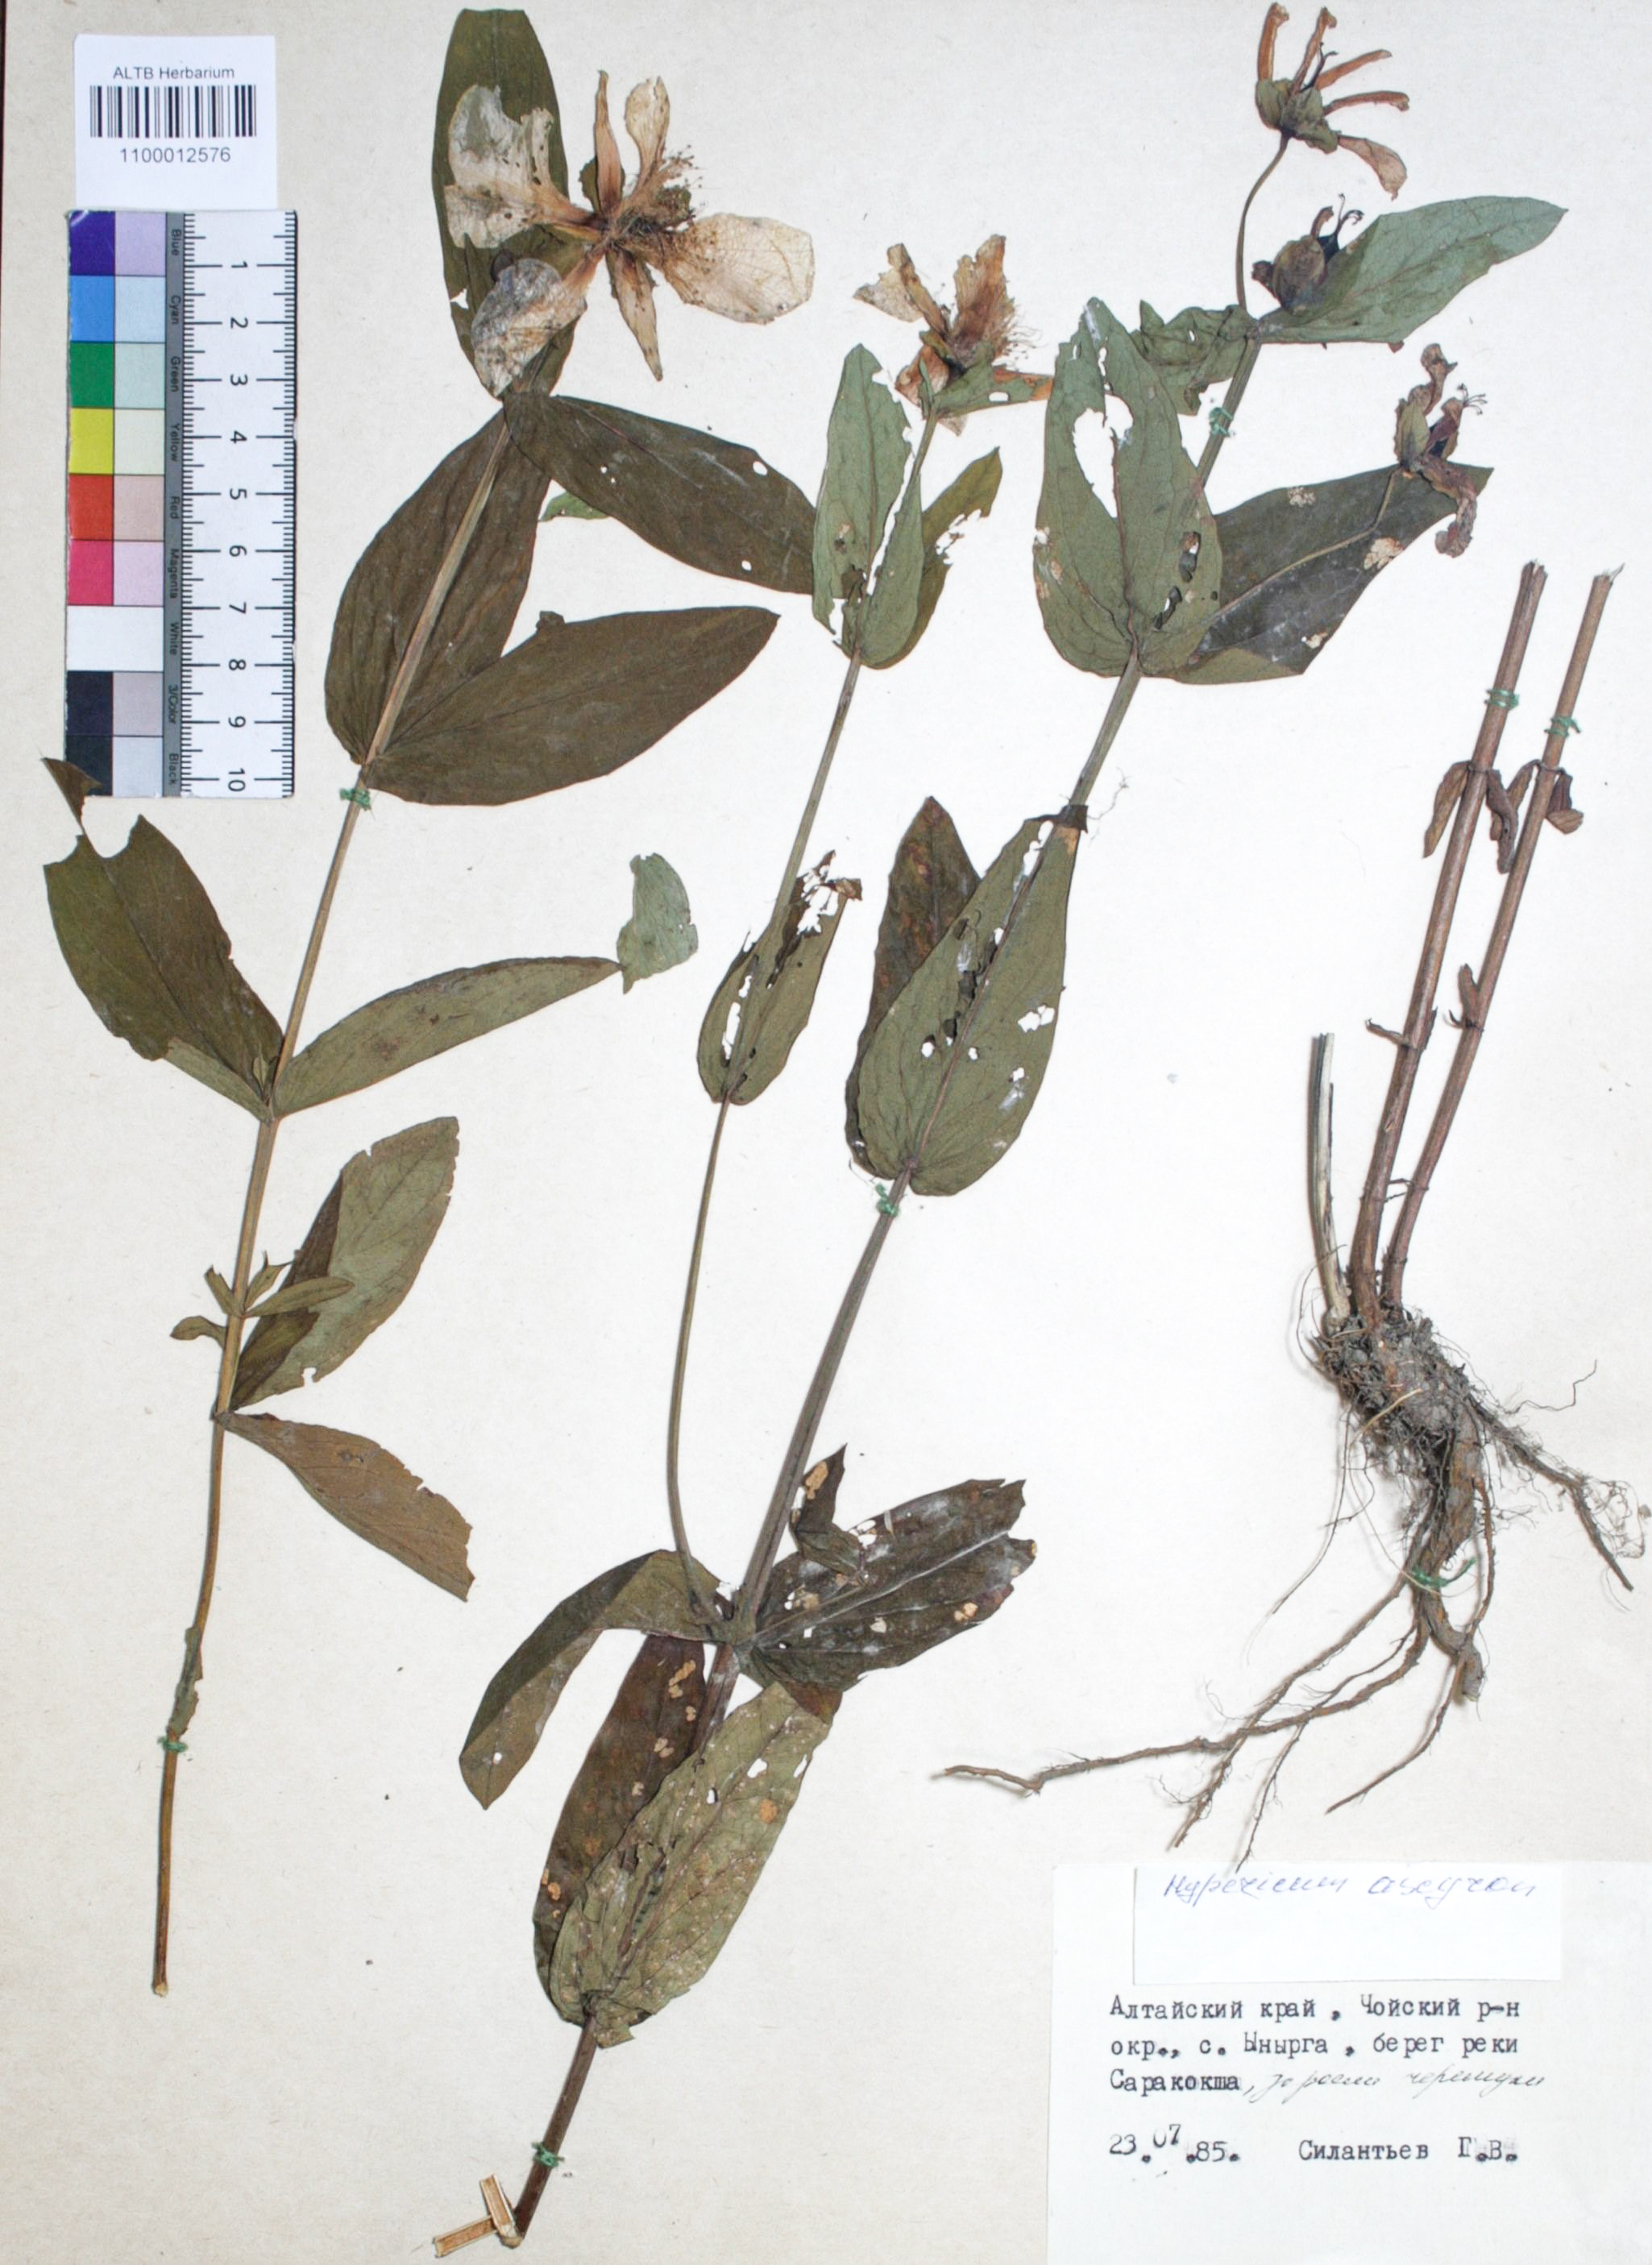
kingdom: Plantae
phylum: Tracheophyta
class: Magnoliopsida
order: Malpighiales
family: Hypericaceae
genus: Hypericum
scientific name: Hypericum ascyron
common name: Giant st. john's-wort
